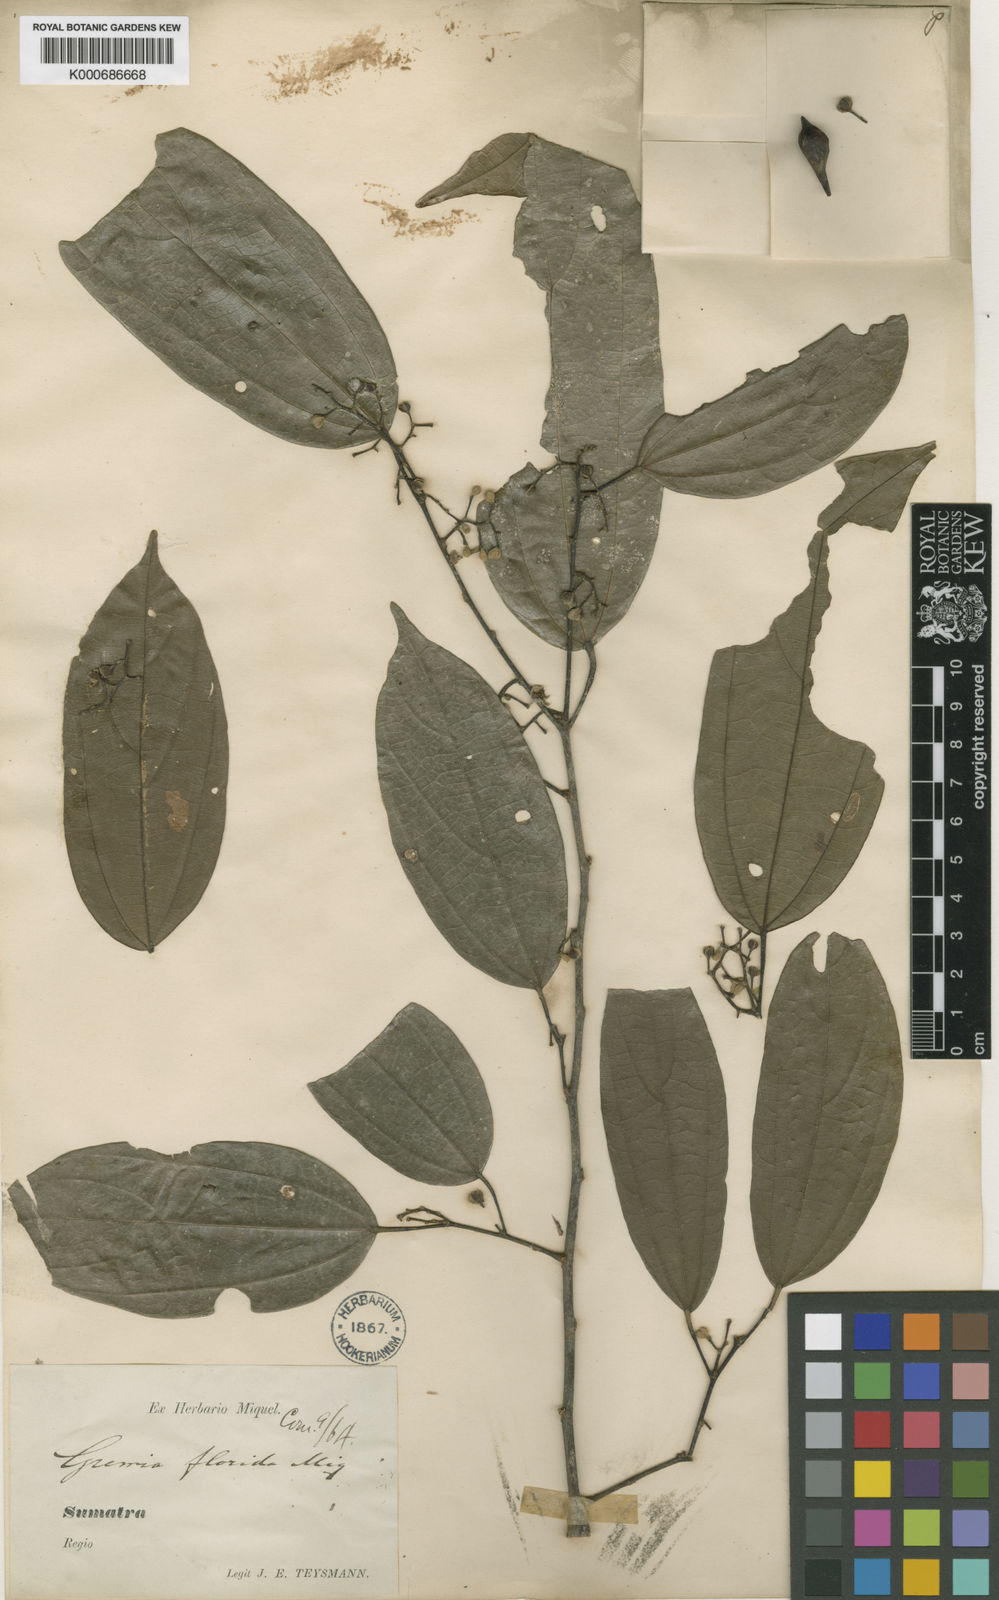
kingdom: Plantae
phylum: Tracheophyta
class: Magnoliopsida
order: Malvales
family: Malvaceae
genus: Microcos
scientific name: Microcos florida
